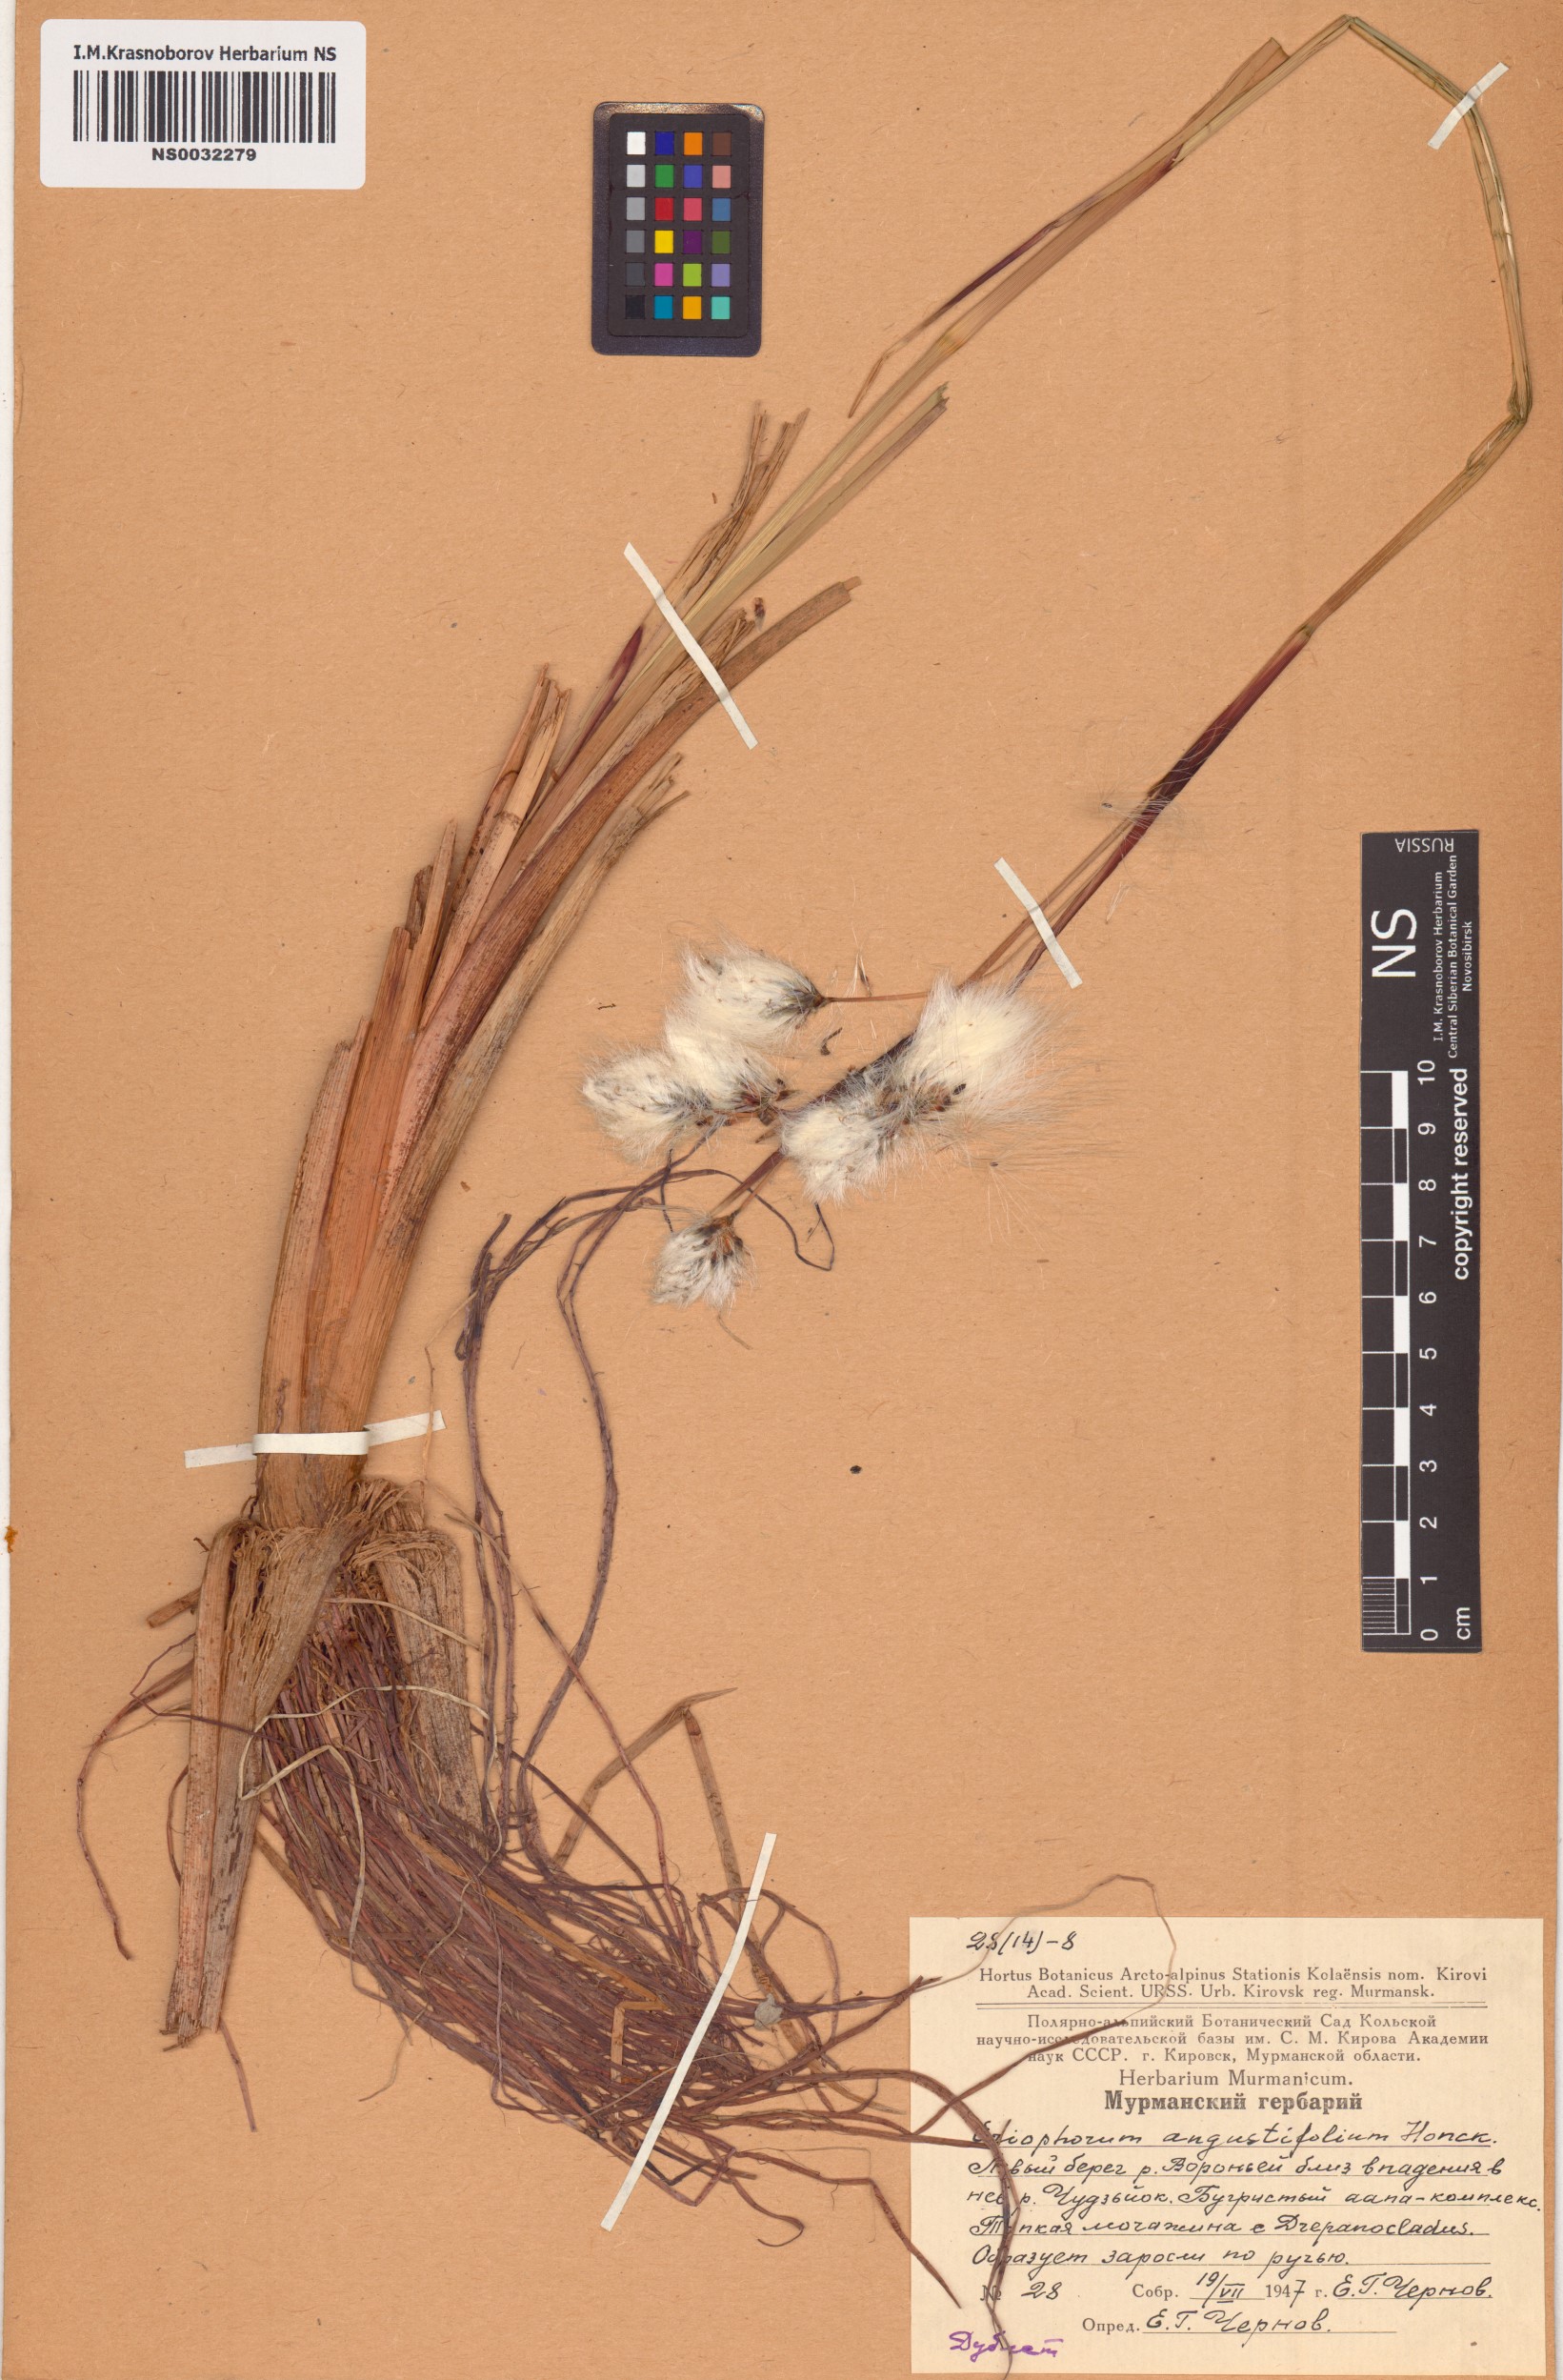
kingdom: Plantae
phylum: Tracheophyta
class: Liliopsida
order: Poales
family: Cyperaceae
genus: Eriophorum
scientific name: Eriophorum angustifolium
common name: Common cottongrass
